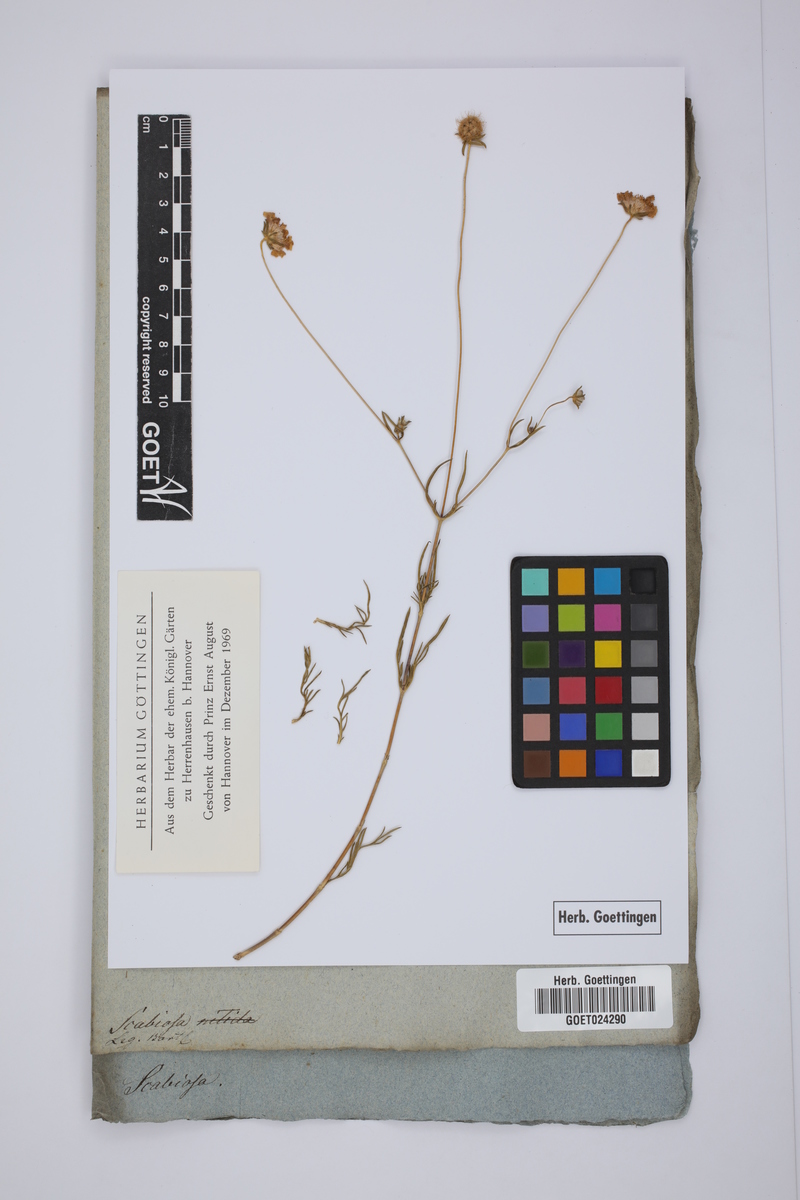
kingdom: Plantae
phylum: Tracheophyta
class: Magnoliopsida
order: Dipsacales
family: Caprifoliaceae
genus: Scabiosa
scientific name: Scabiosa
